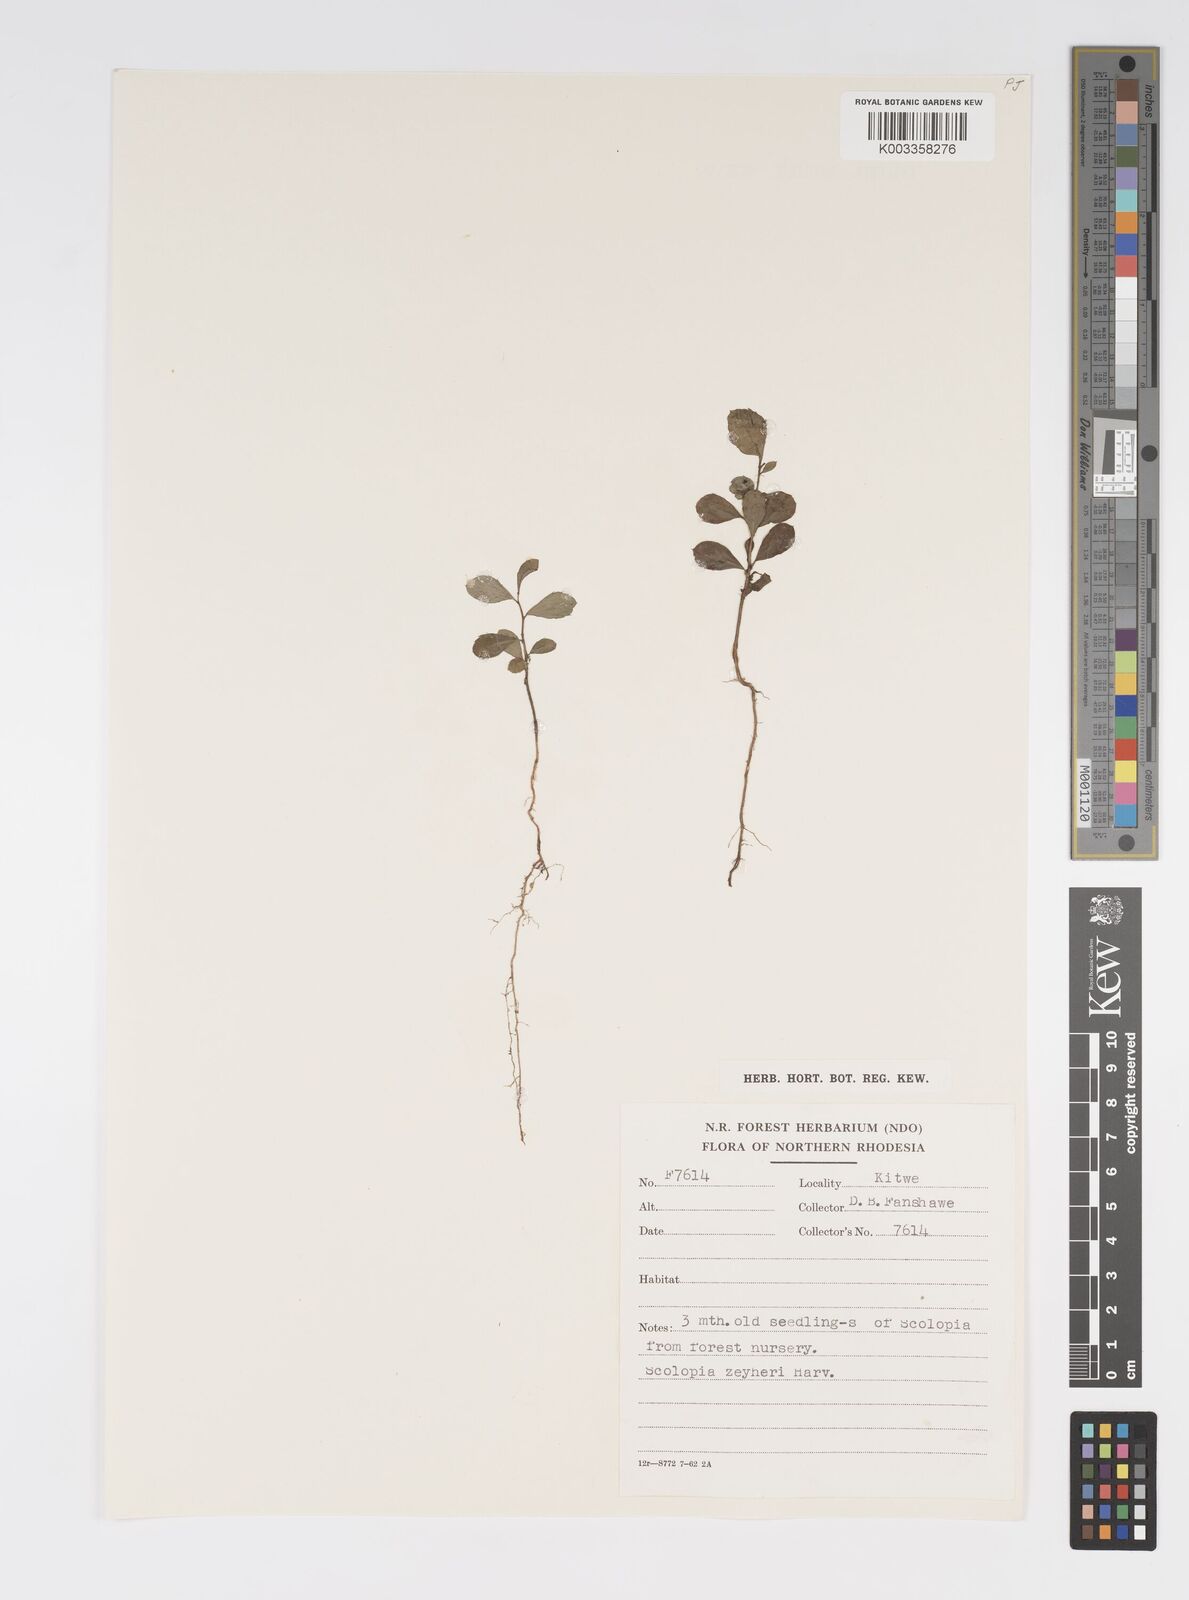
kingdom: Plantae
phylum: Tracheophyta
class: Magnoliopsida
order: Malpighiales
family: Salicaceae
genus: Scolopia
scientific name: Scolopia zeyheri
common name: Thorn pear
